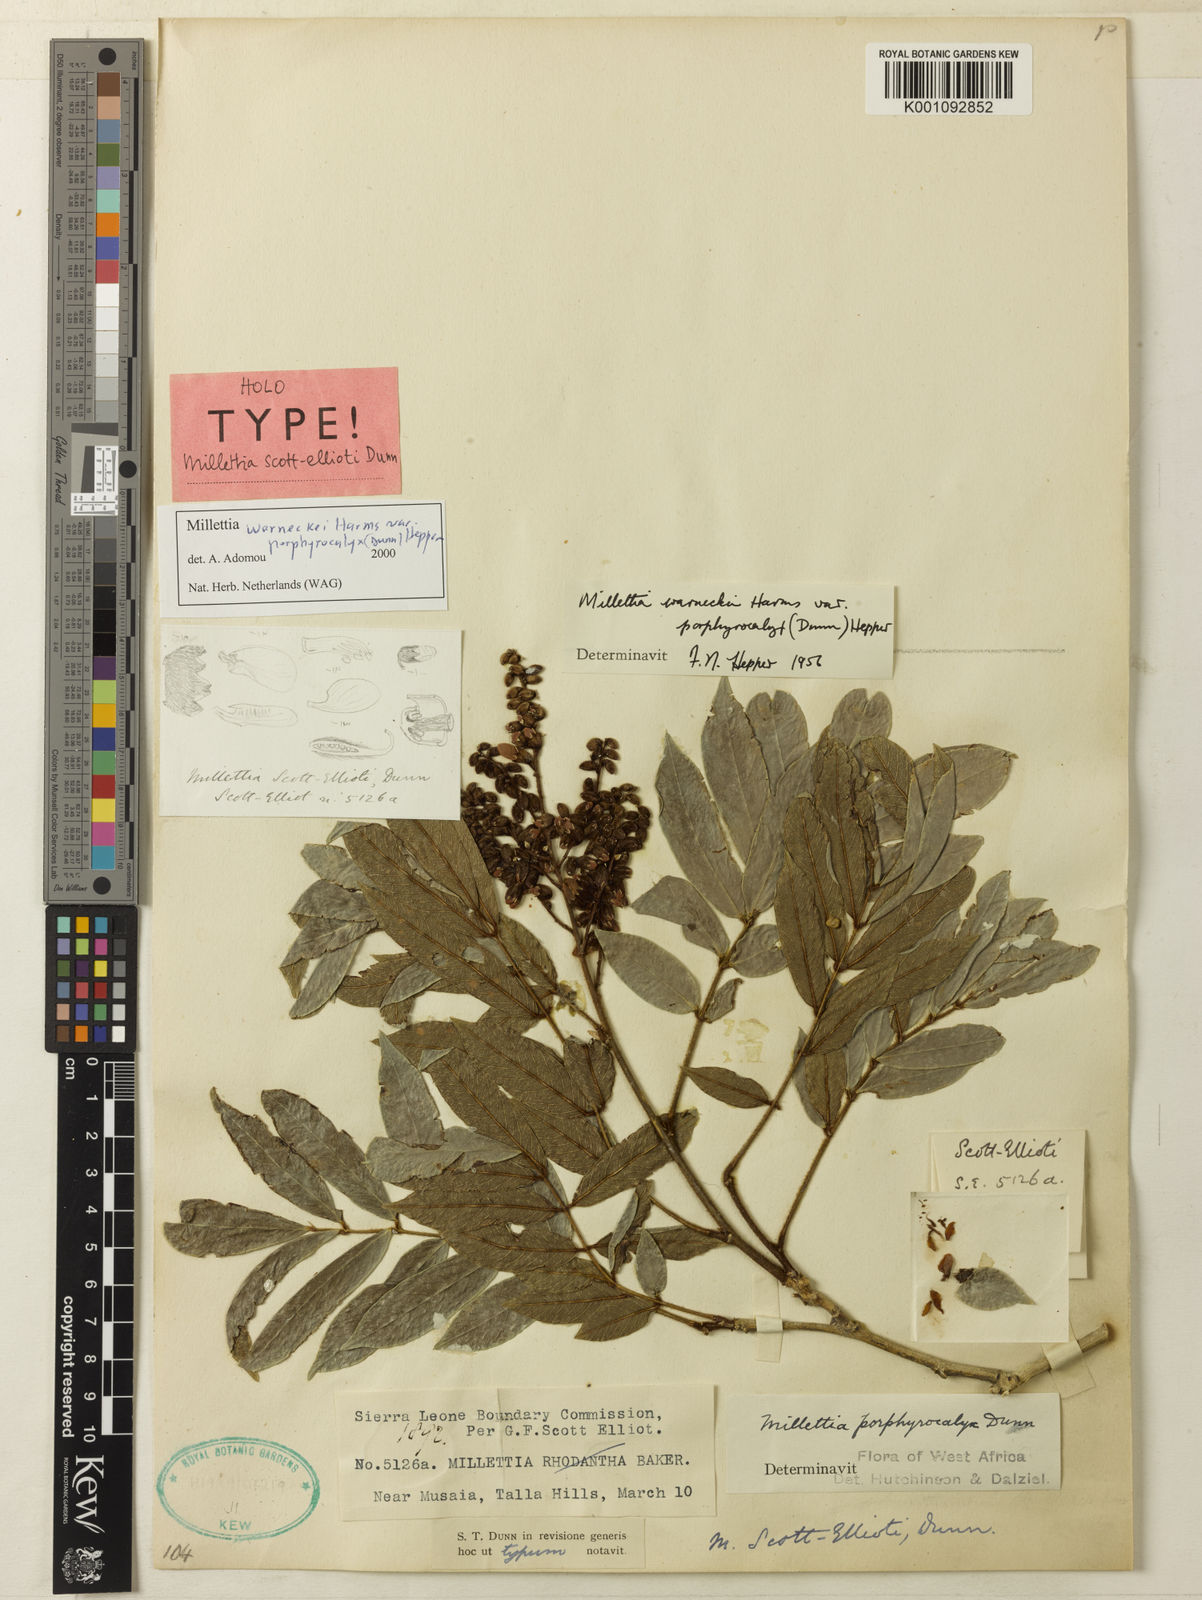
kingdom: Plantae
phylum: Tracheophyta
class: Magnoliopsida
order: Fabales
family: Fabaceae
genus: Millettia
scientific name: Millettia warneckei
